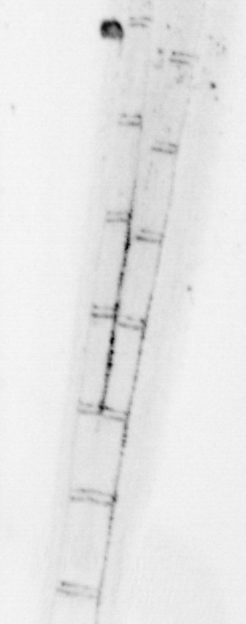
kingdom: Animalia
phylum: Chordata
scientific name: Chordata
